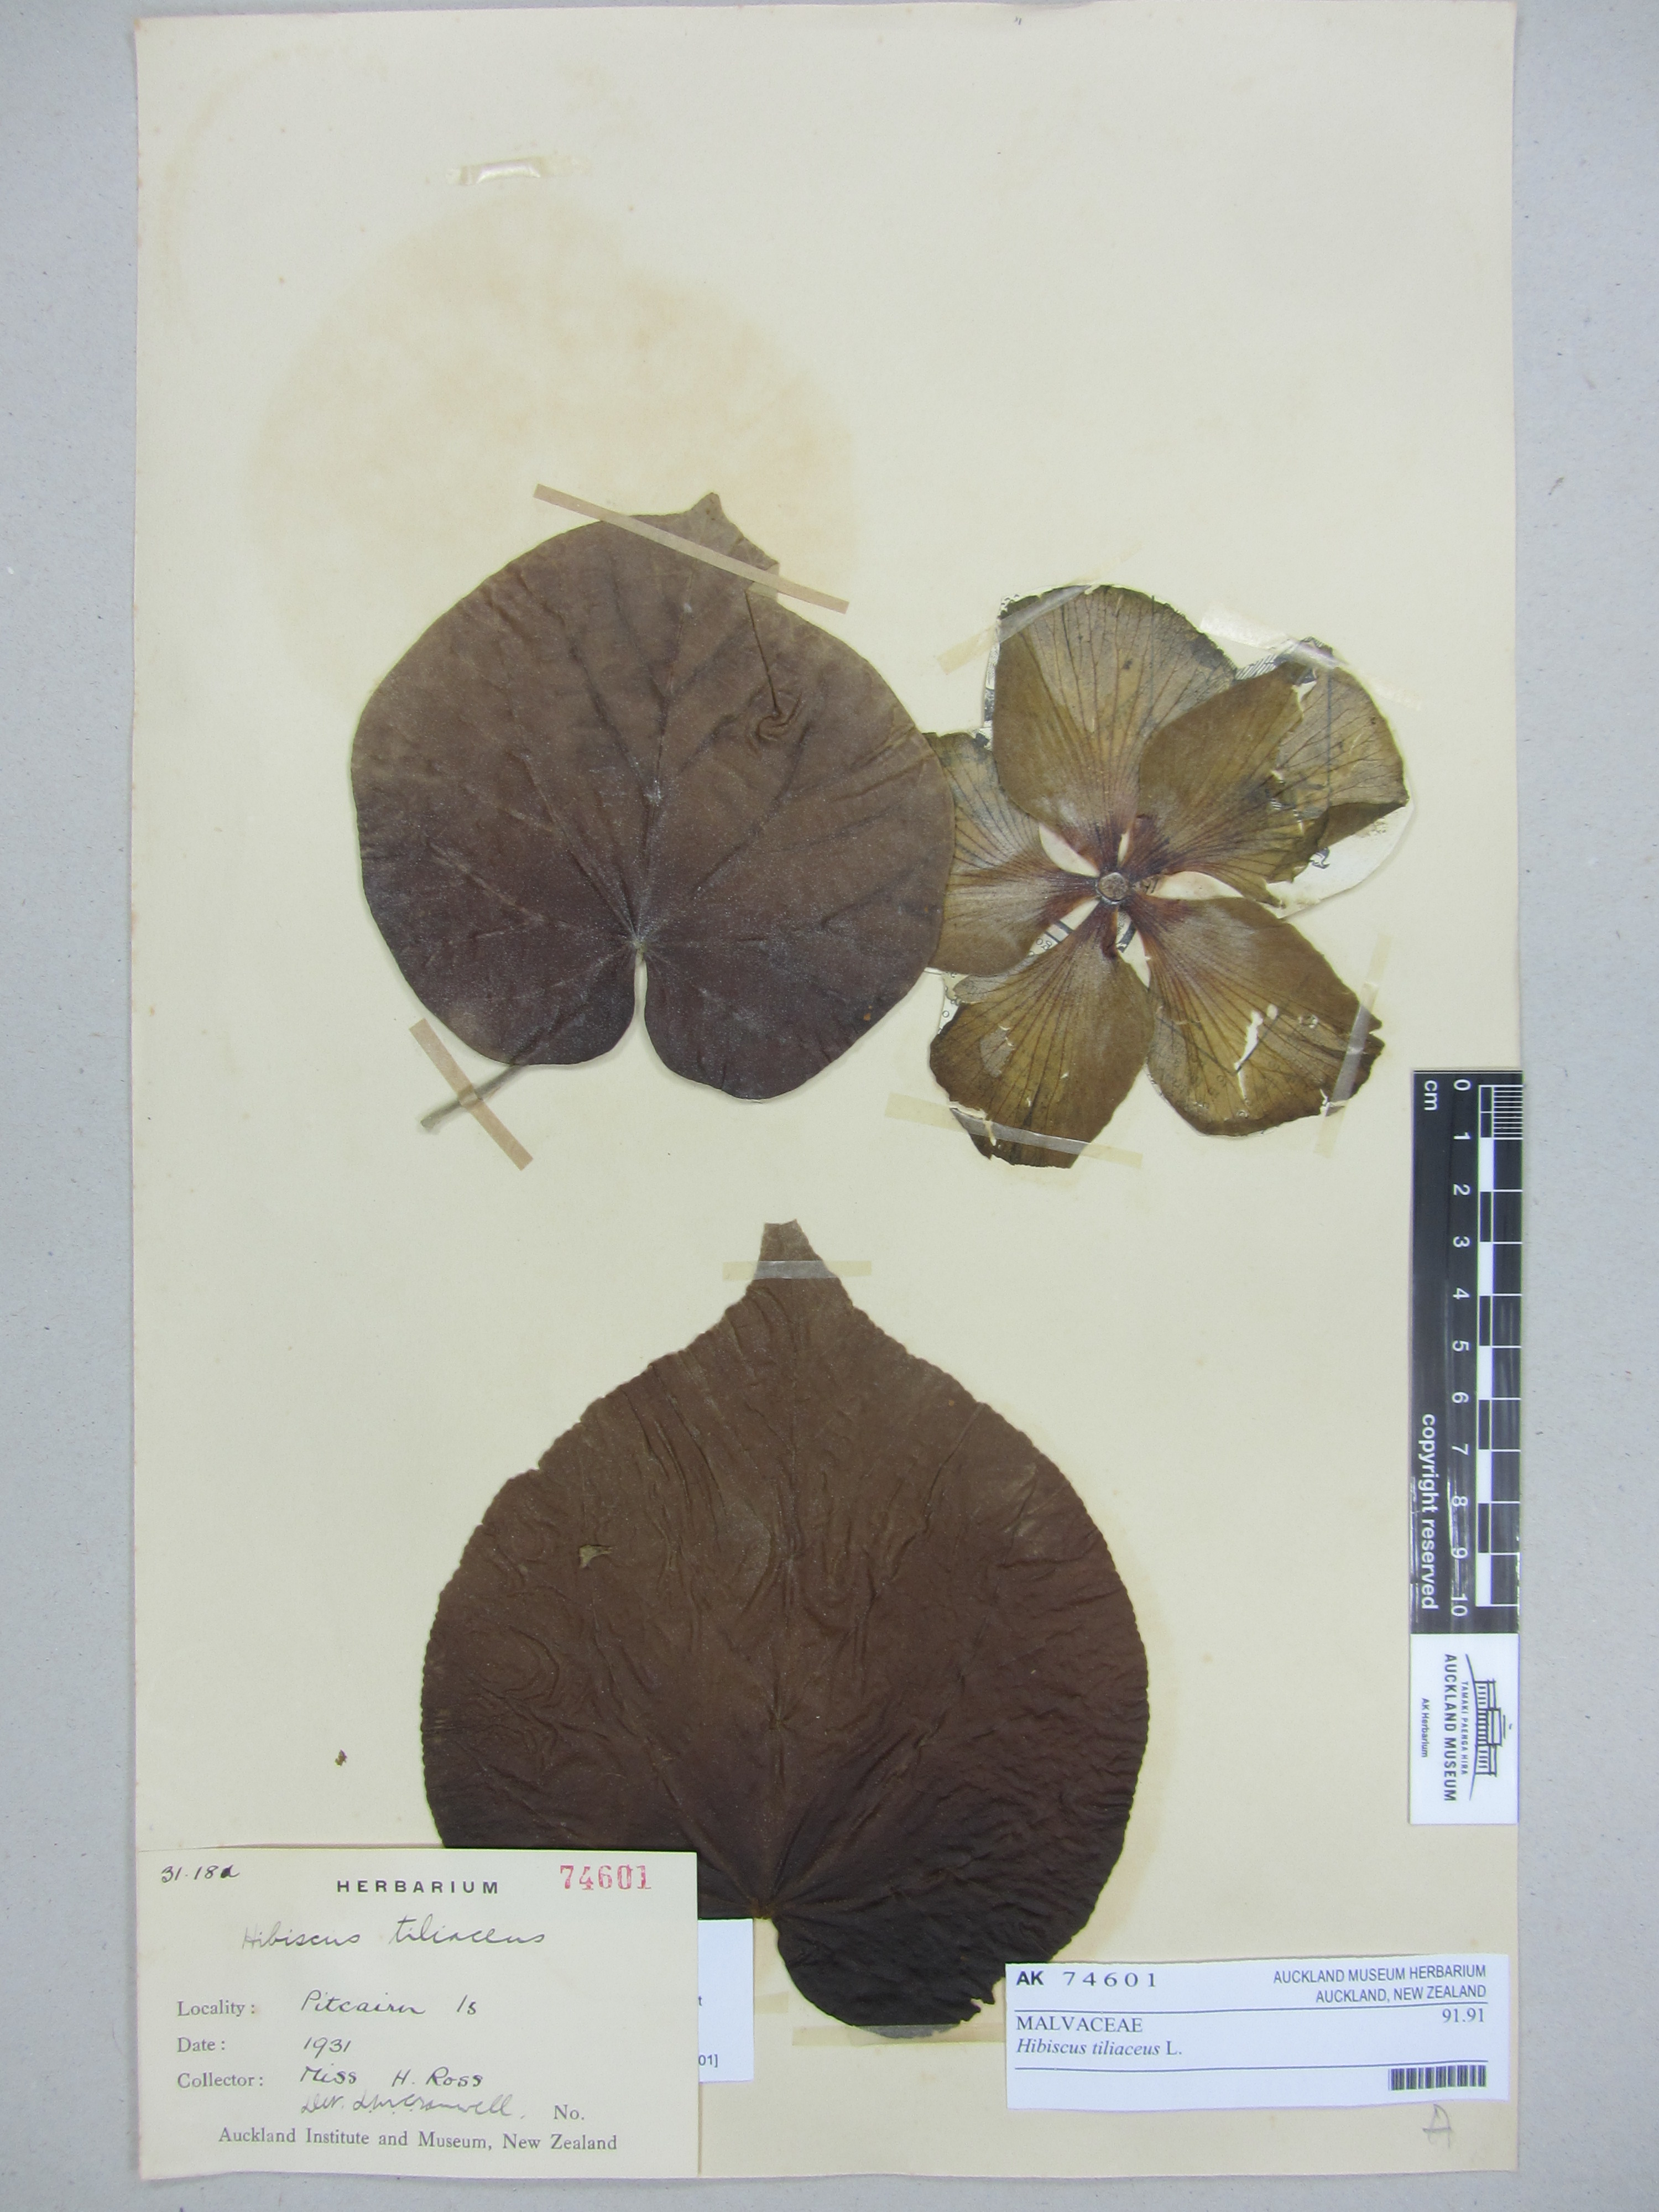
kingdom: Plantae
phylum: Tracheophyta
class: Magnoliopsida
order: Malvales
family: Malvaceae
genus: Talipariti
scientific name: Talipariti tiliaceum
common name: Sea hibiscus
